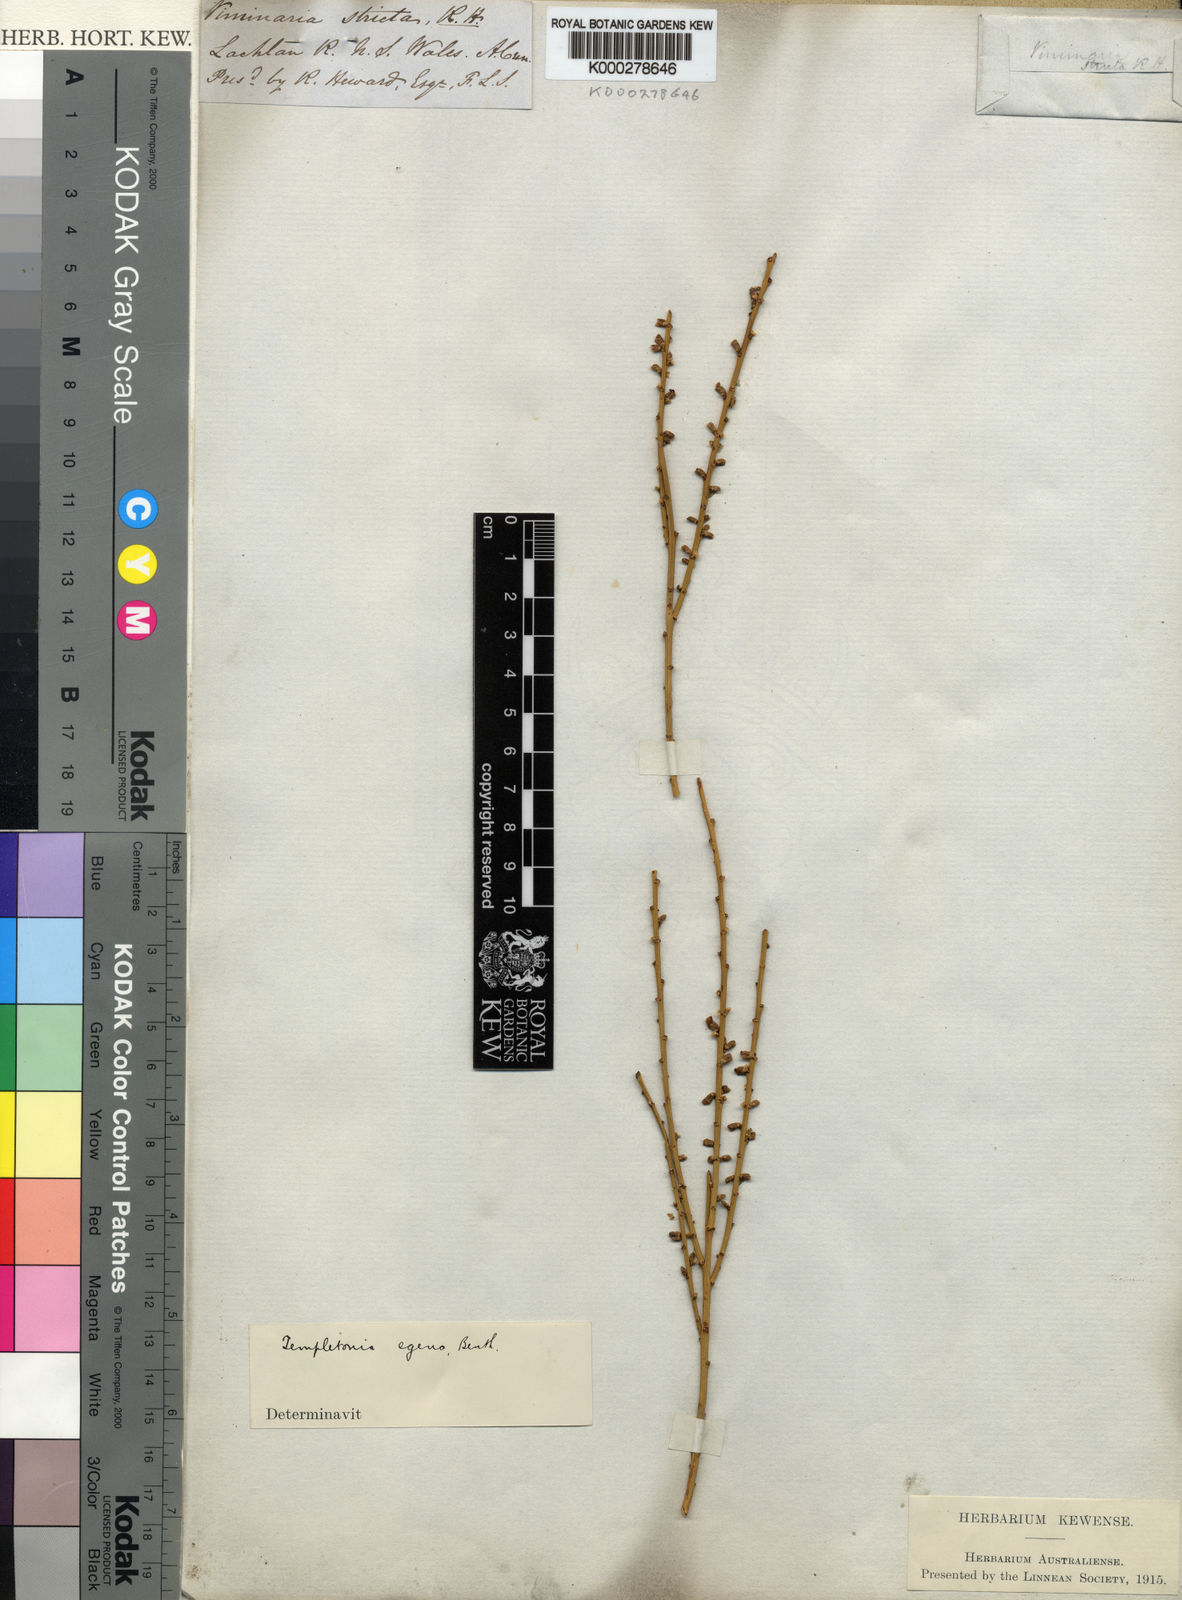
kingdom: Plantae
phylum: Tracheophyta
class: Magnoliopsida
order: Fabales
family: Fabaceae
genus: Templetonia
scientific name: Templetonia egena
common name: Desert broombush
